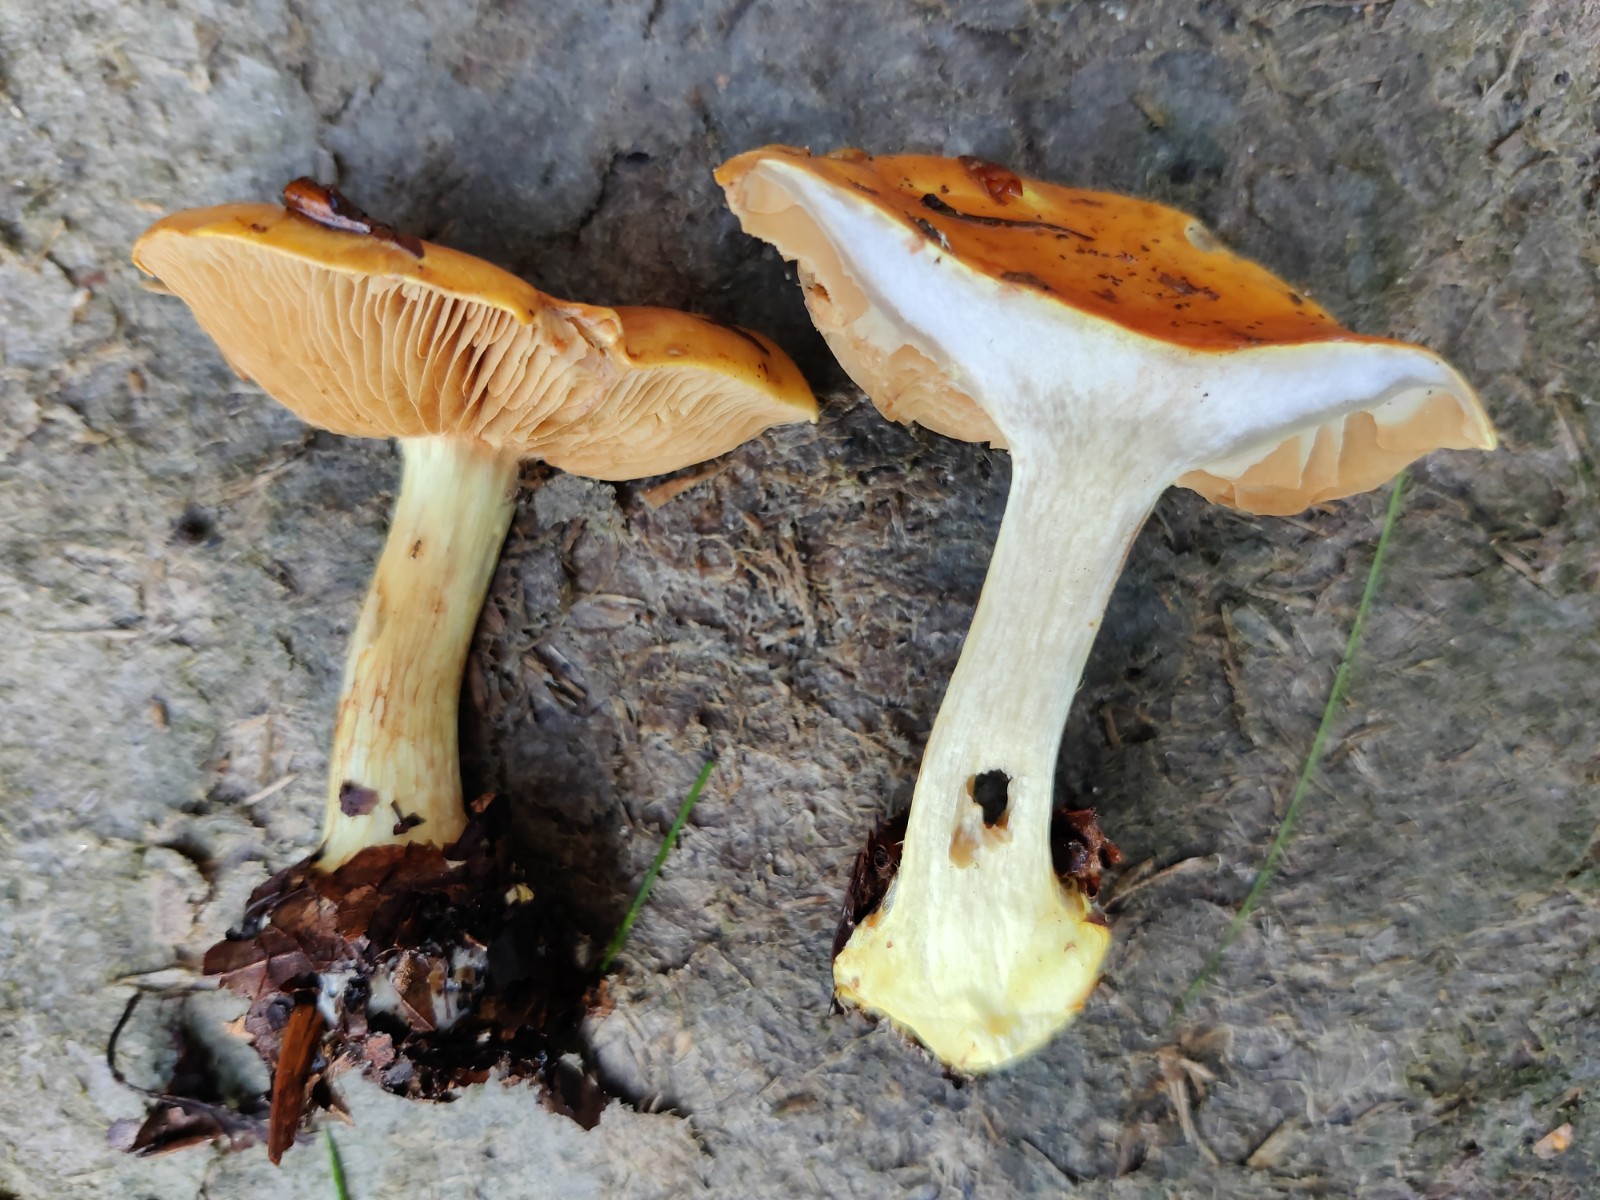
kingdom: Fungi
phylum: Basidiomycota
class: Agaricomycetes
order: Agaricales
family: Cortinariaceae
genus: Cortinarius
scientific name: Cortinarius bergeronii
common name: prægtig slørhat
